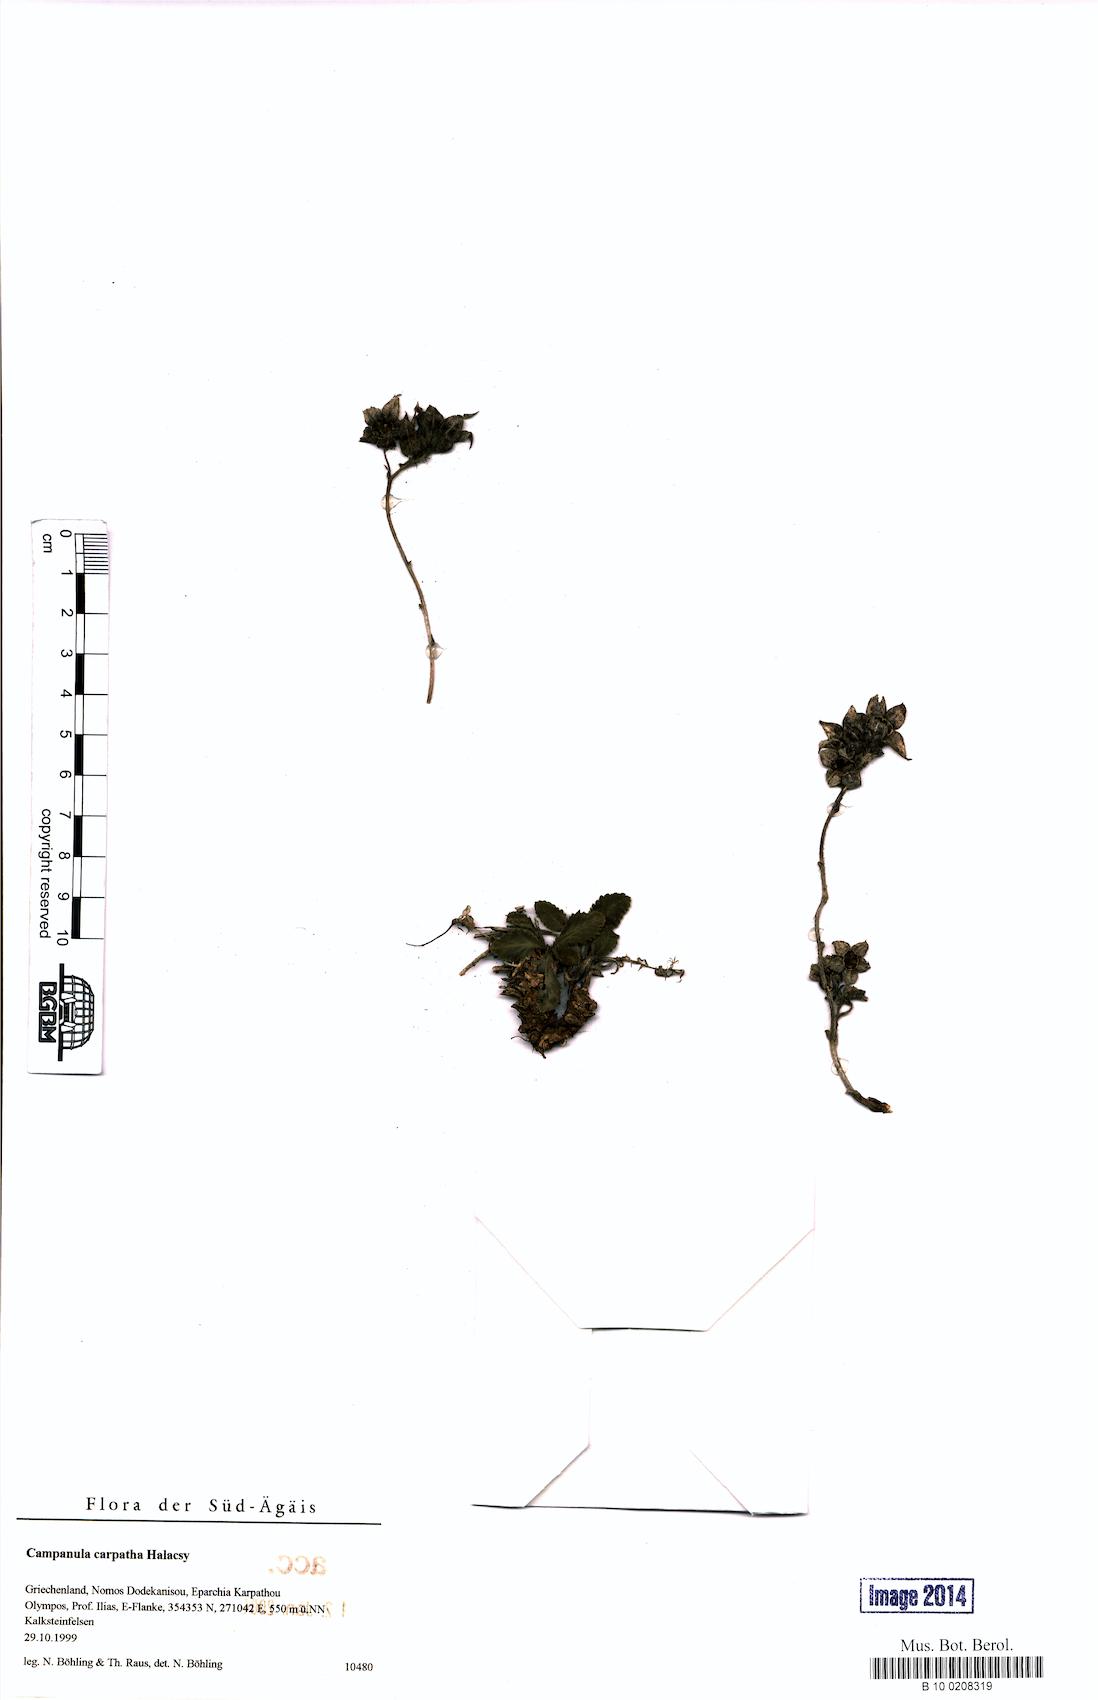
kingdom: Plantae
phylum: Tracheophyta
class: Magnoliopsida
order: Asterales
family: Campanulaceae
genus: Campanula
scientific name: Campanula carpatha
